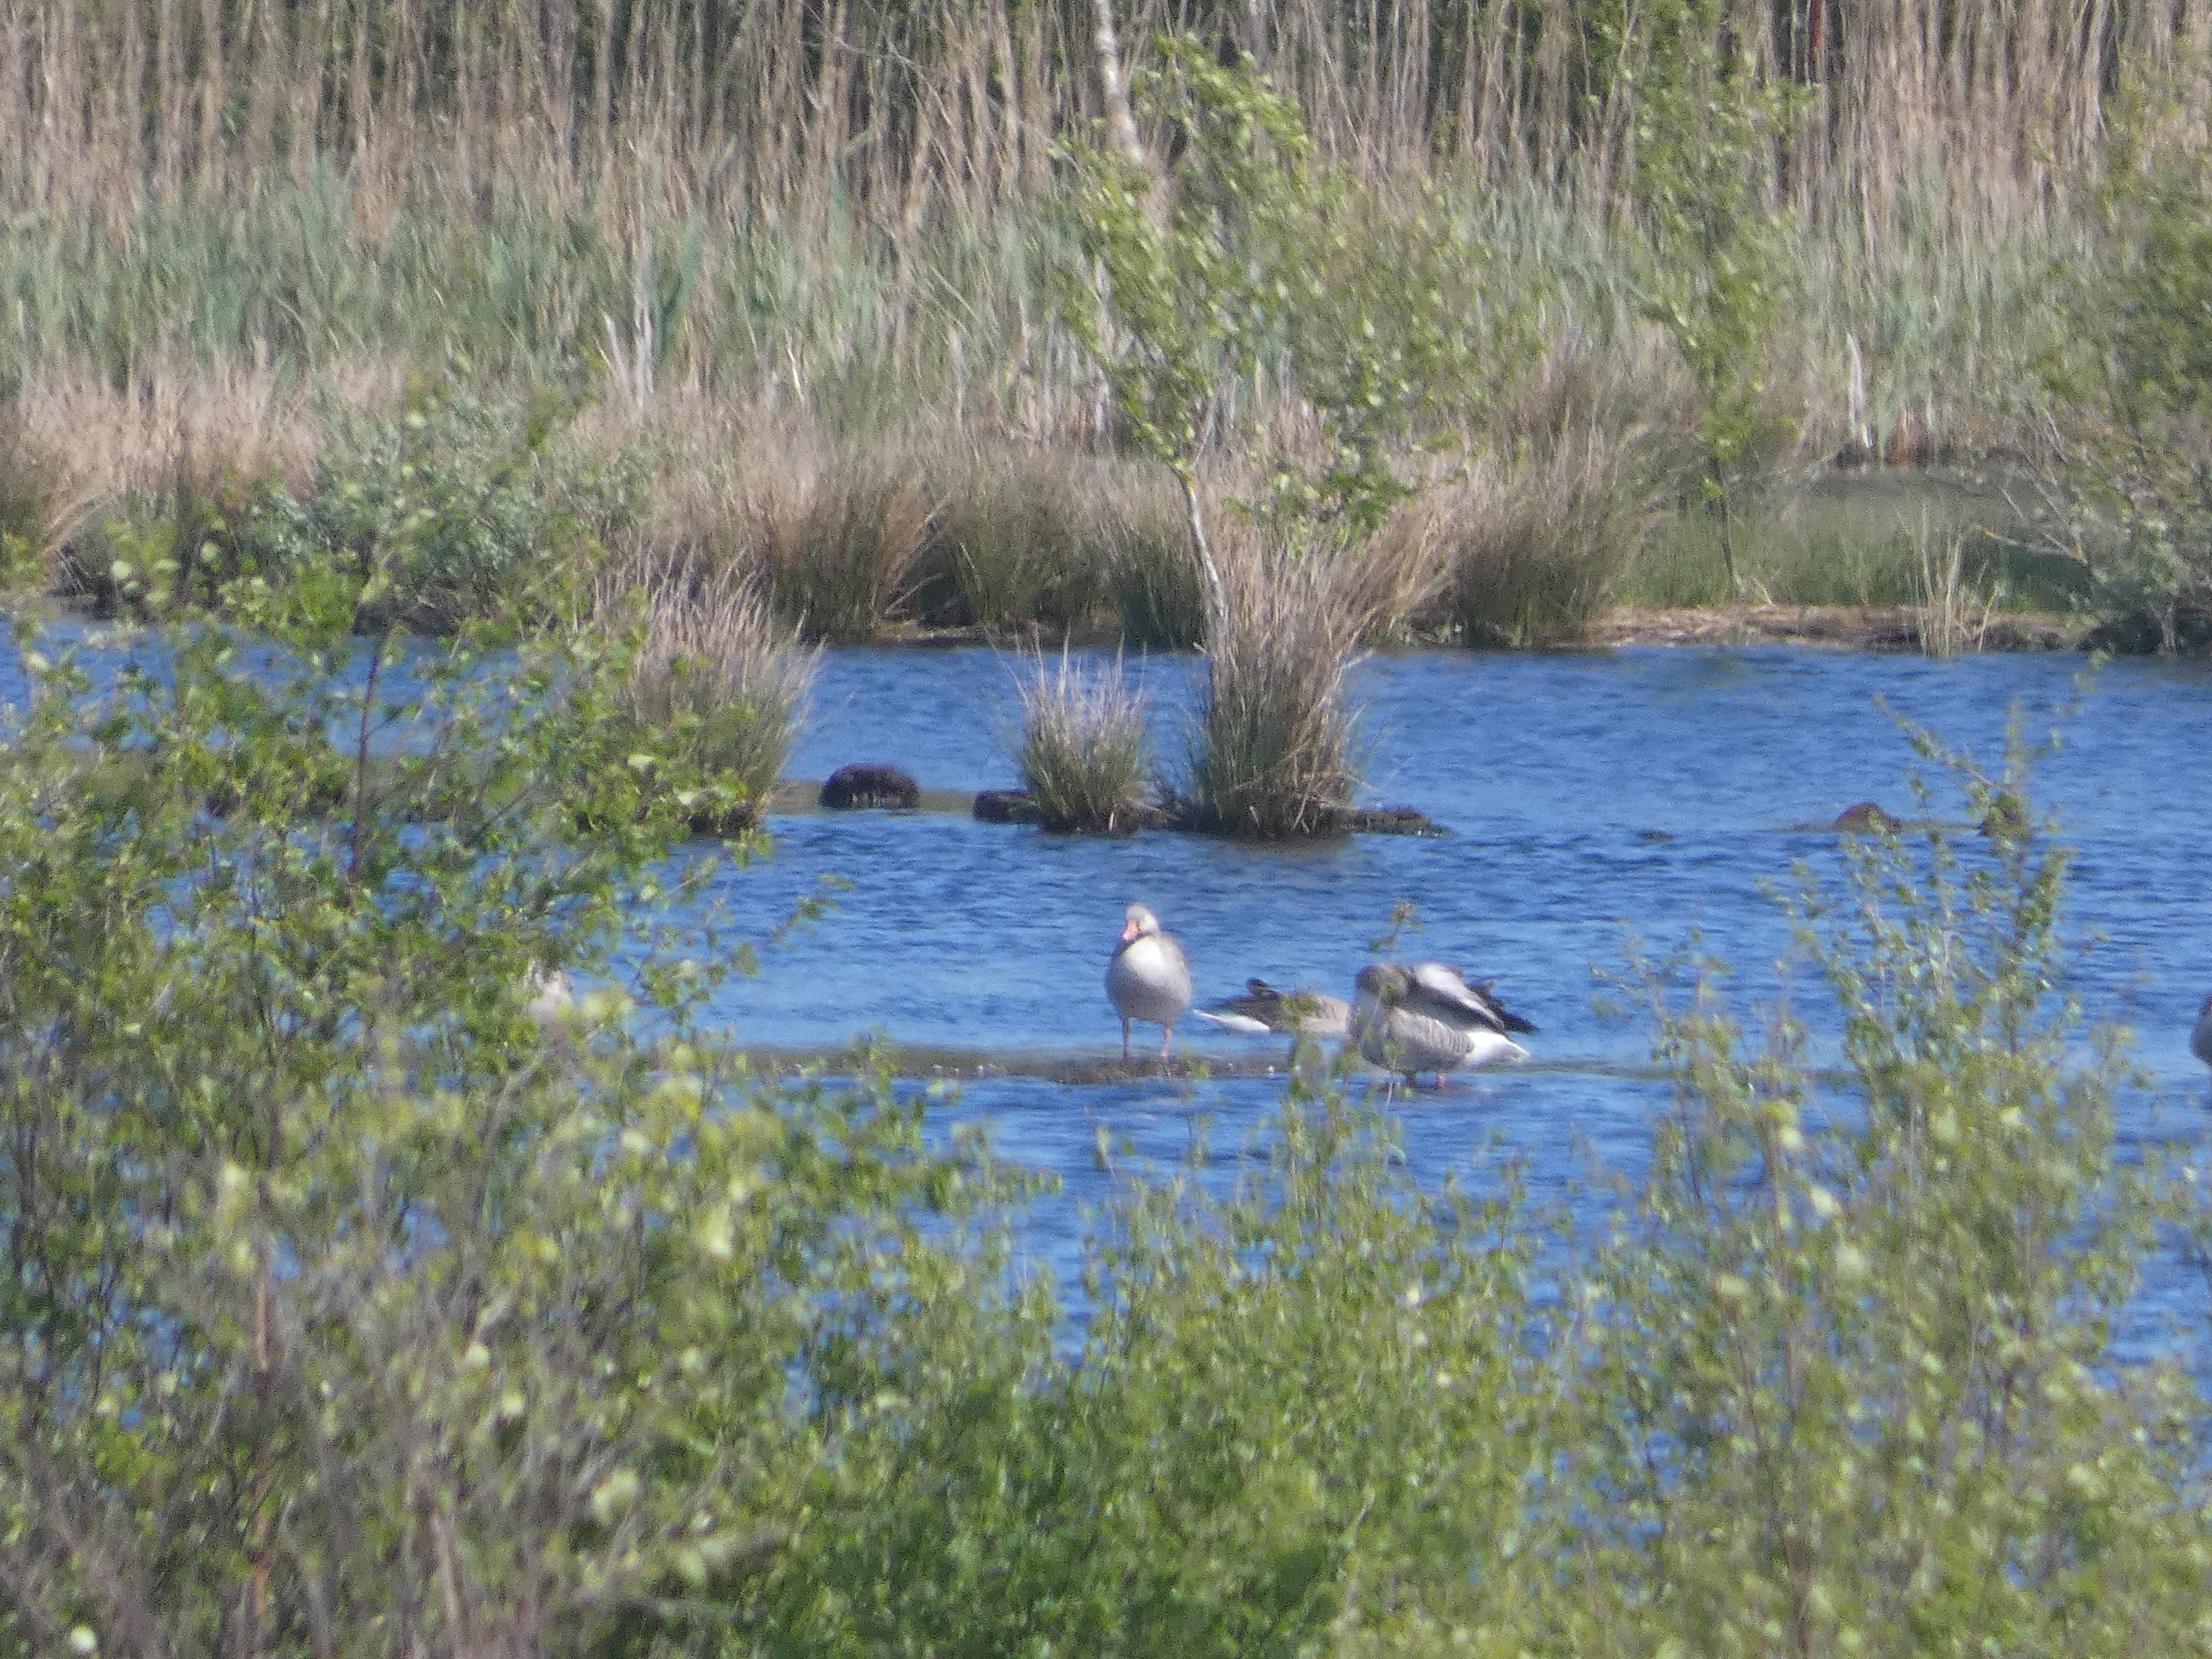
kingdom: Animalia
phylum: Chordata
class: Aves
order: Anseriformes
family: Anatidae
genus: Anser
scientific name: Anser anser
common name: Grågås
